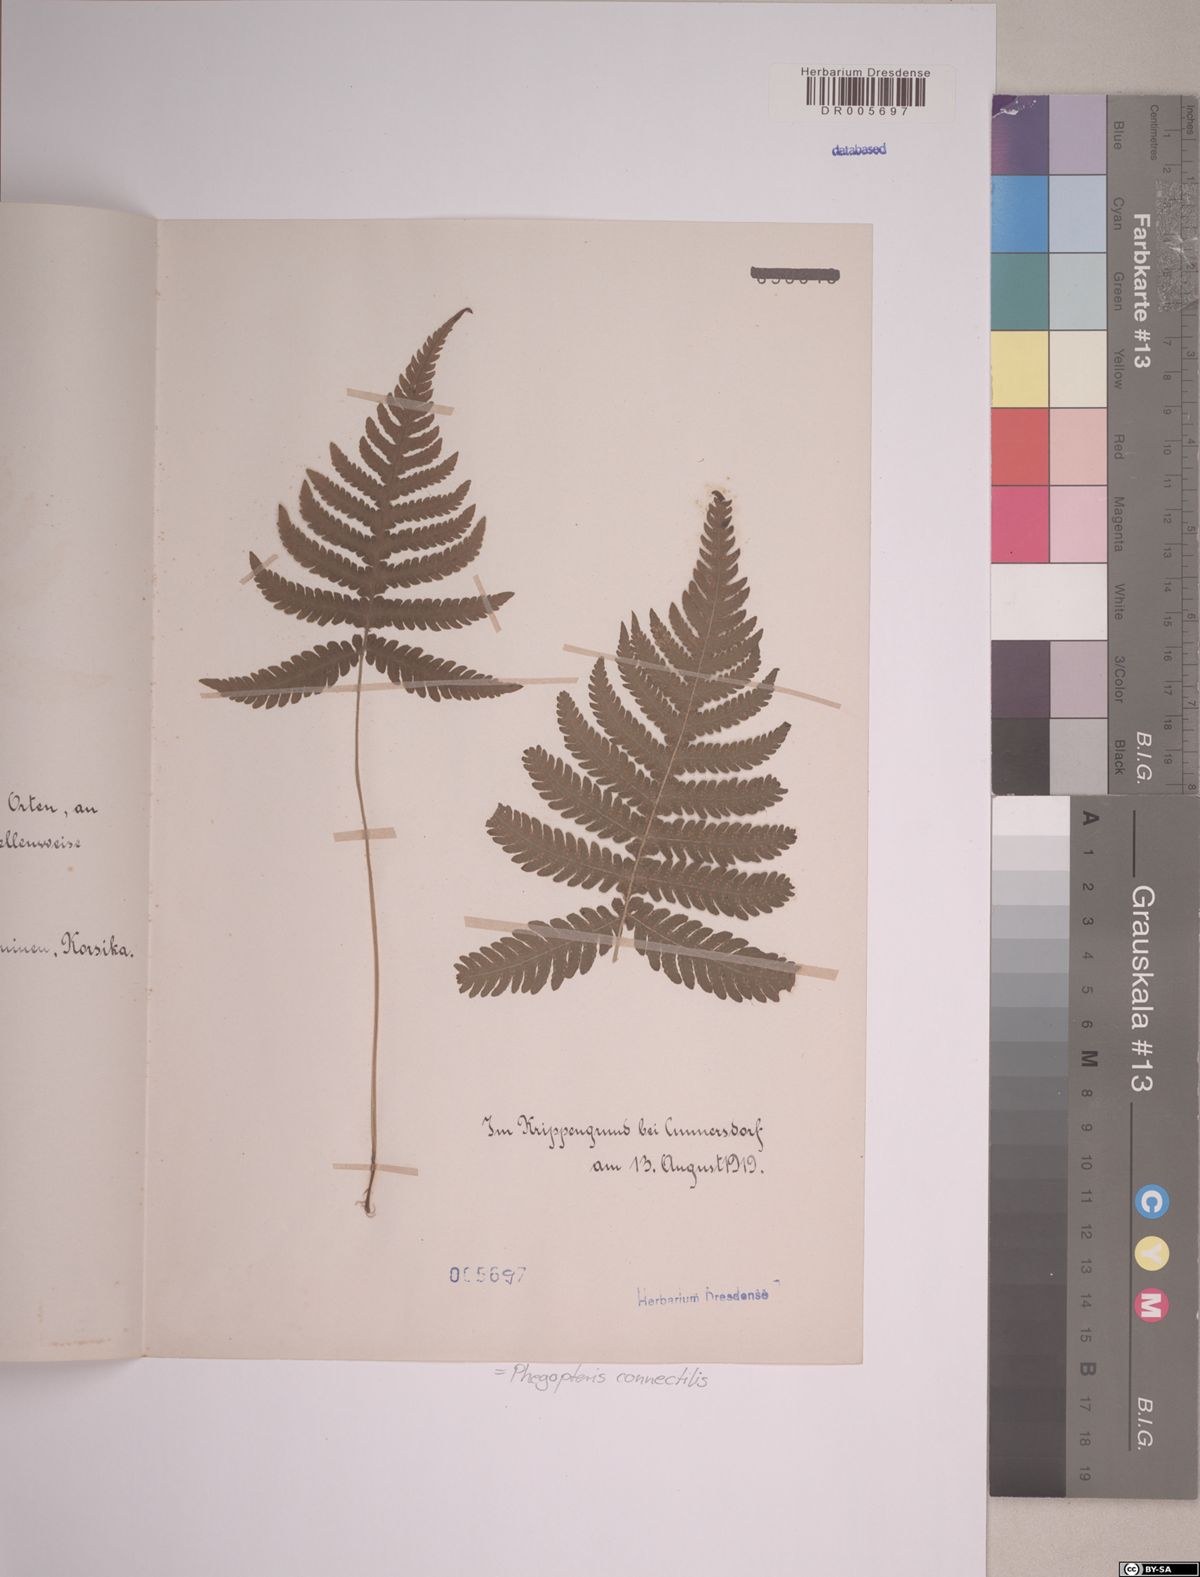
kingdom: Plantae
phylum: Tracheophyta
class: Polypodiopsida
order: Polypodiales
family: Thelypteridaceae
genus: Phegopteris
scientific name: Phegopteris connectilis
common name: Beech fern
